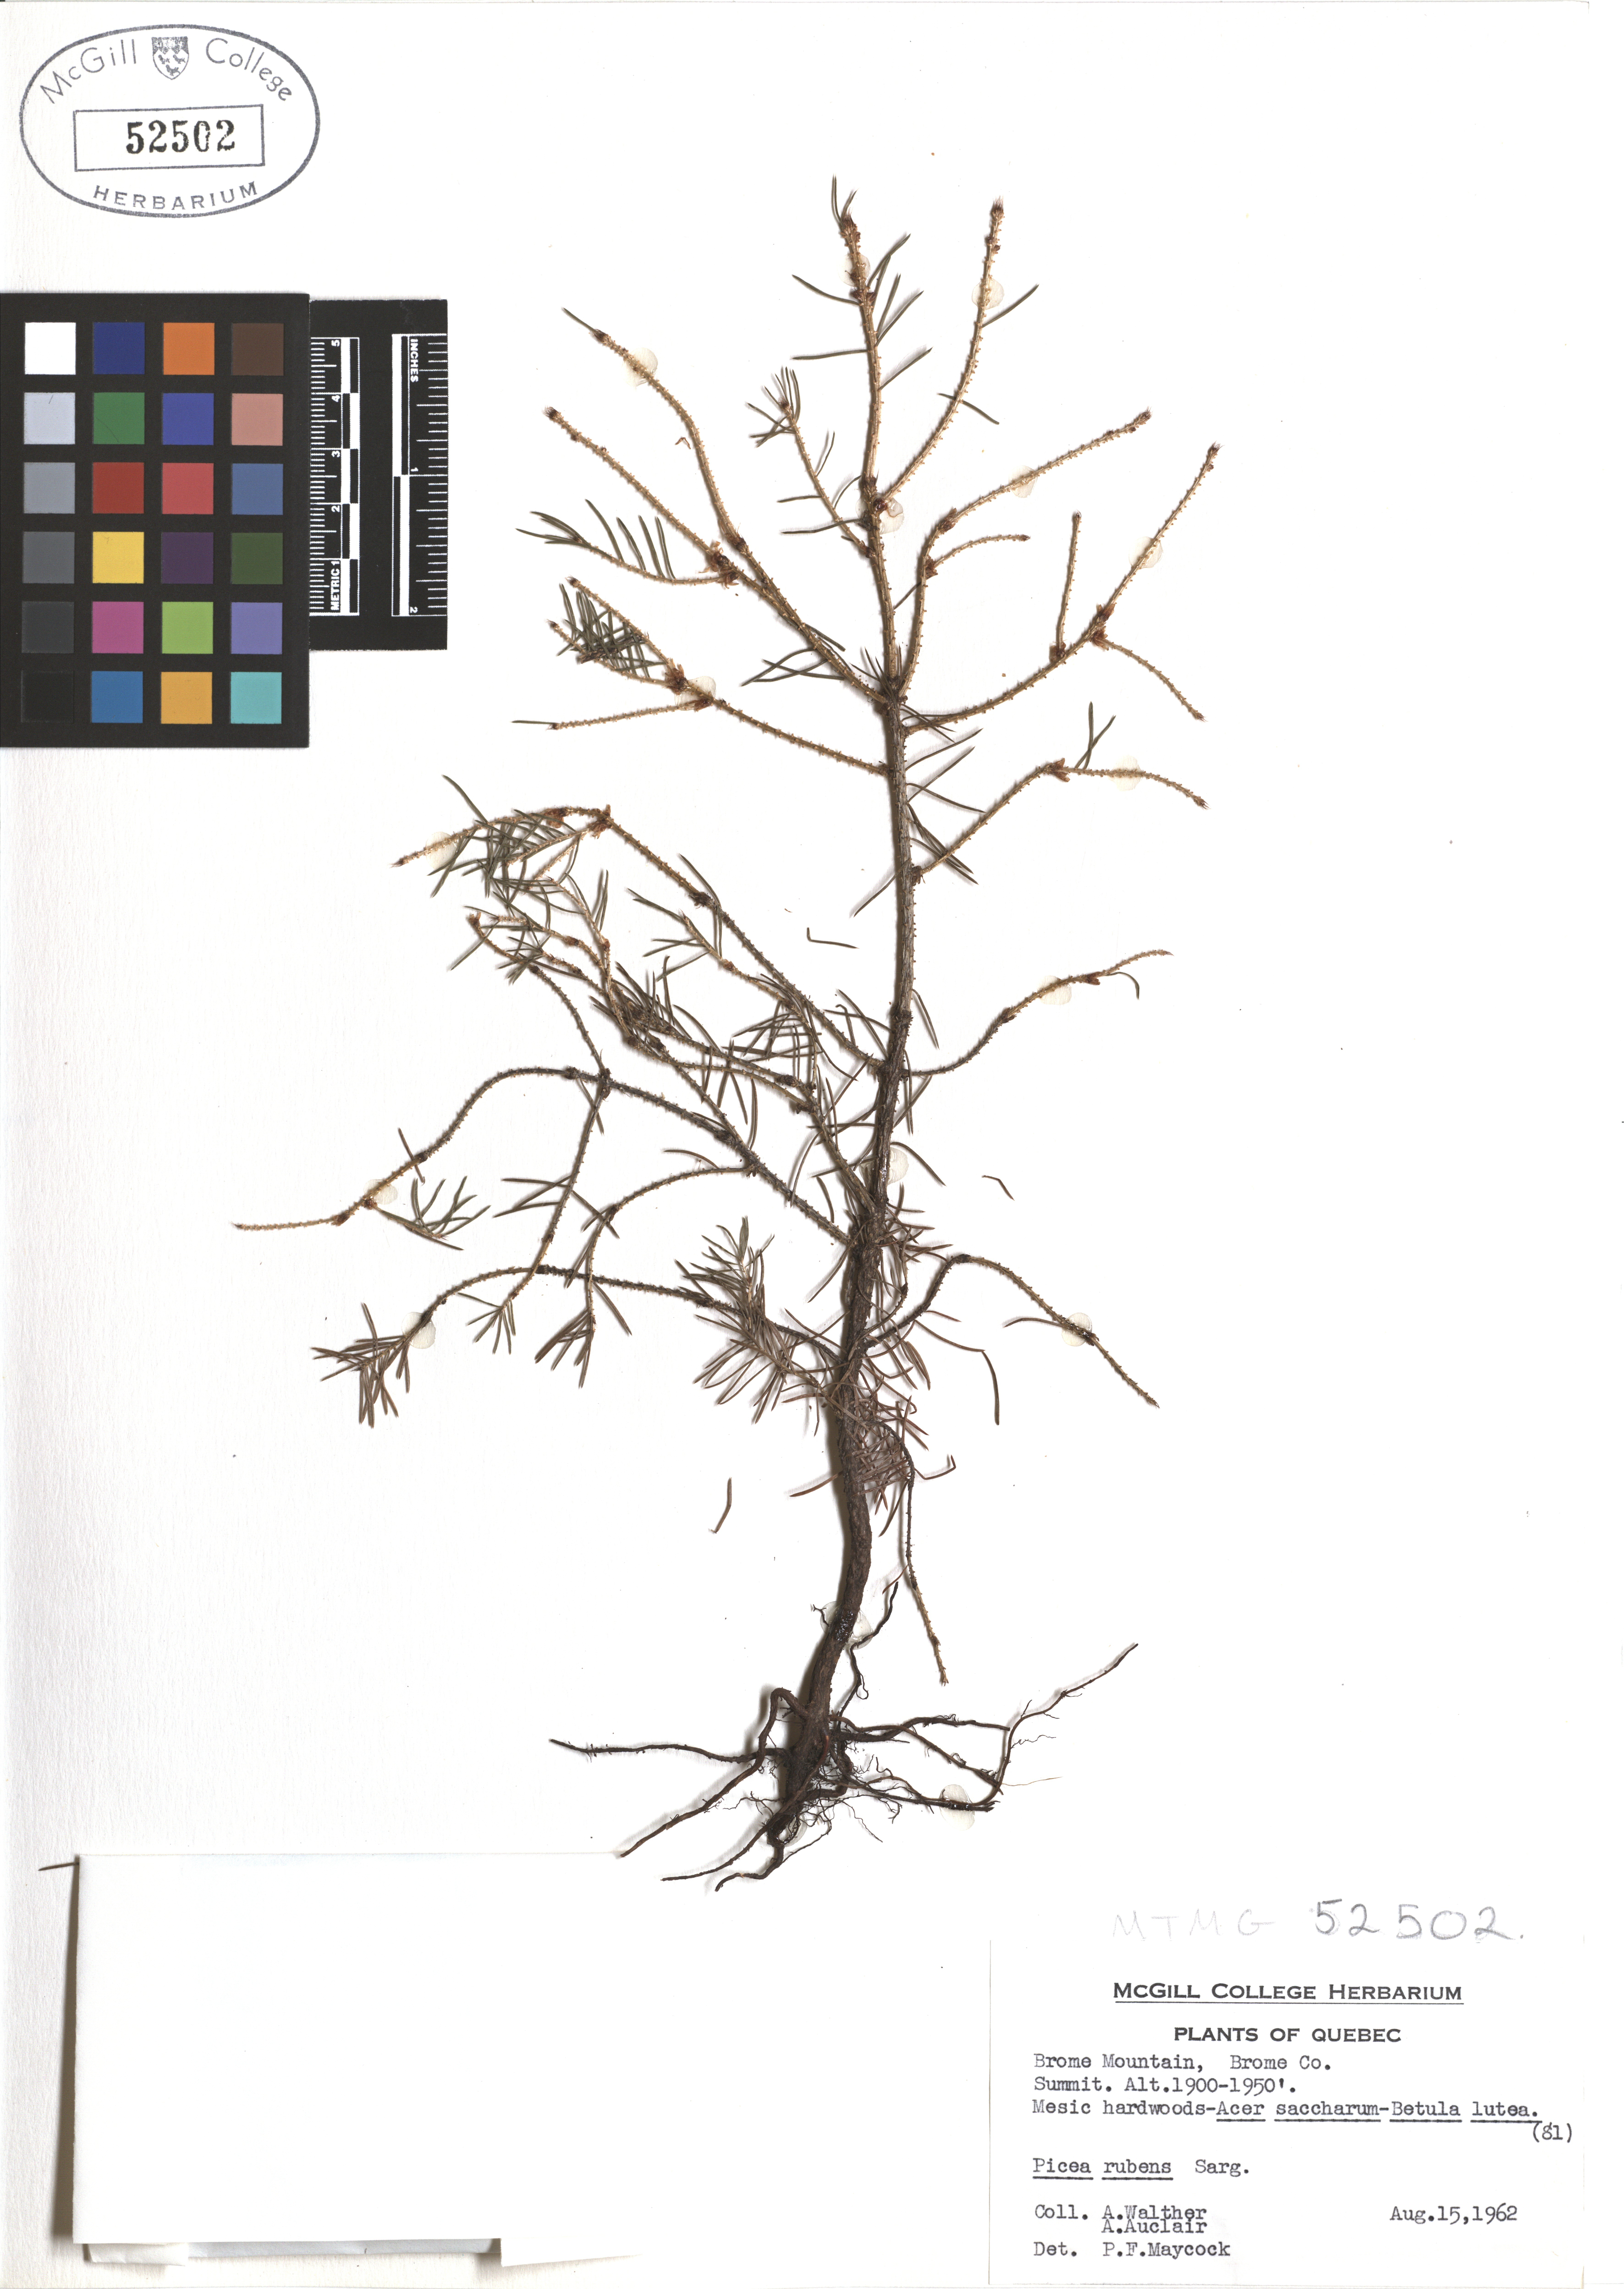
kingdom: Plantae
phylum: Tracheophyta
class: Pinopsida
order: Pinales
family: Pinaceae
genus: Picea
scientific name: Picea rubens
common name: Red spruce
